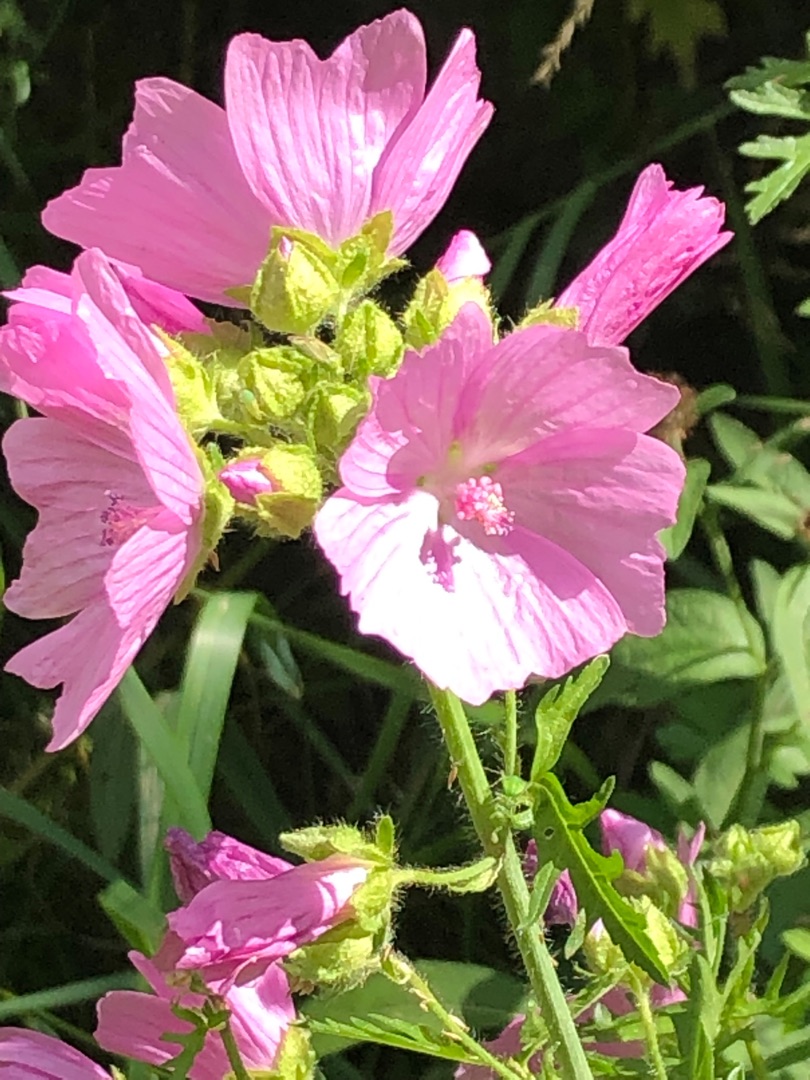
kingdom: Plantae
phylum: Tracheophyta
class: Magnoliopsida
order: Malvales
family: Malvaceae
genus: Malva
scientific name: Malva moschata
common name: Moskus-katost
